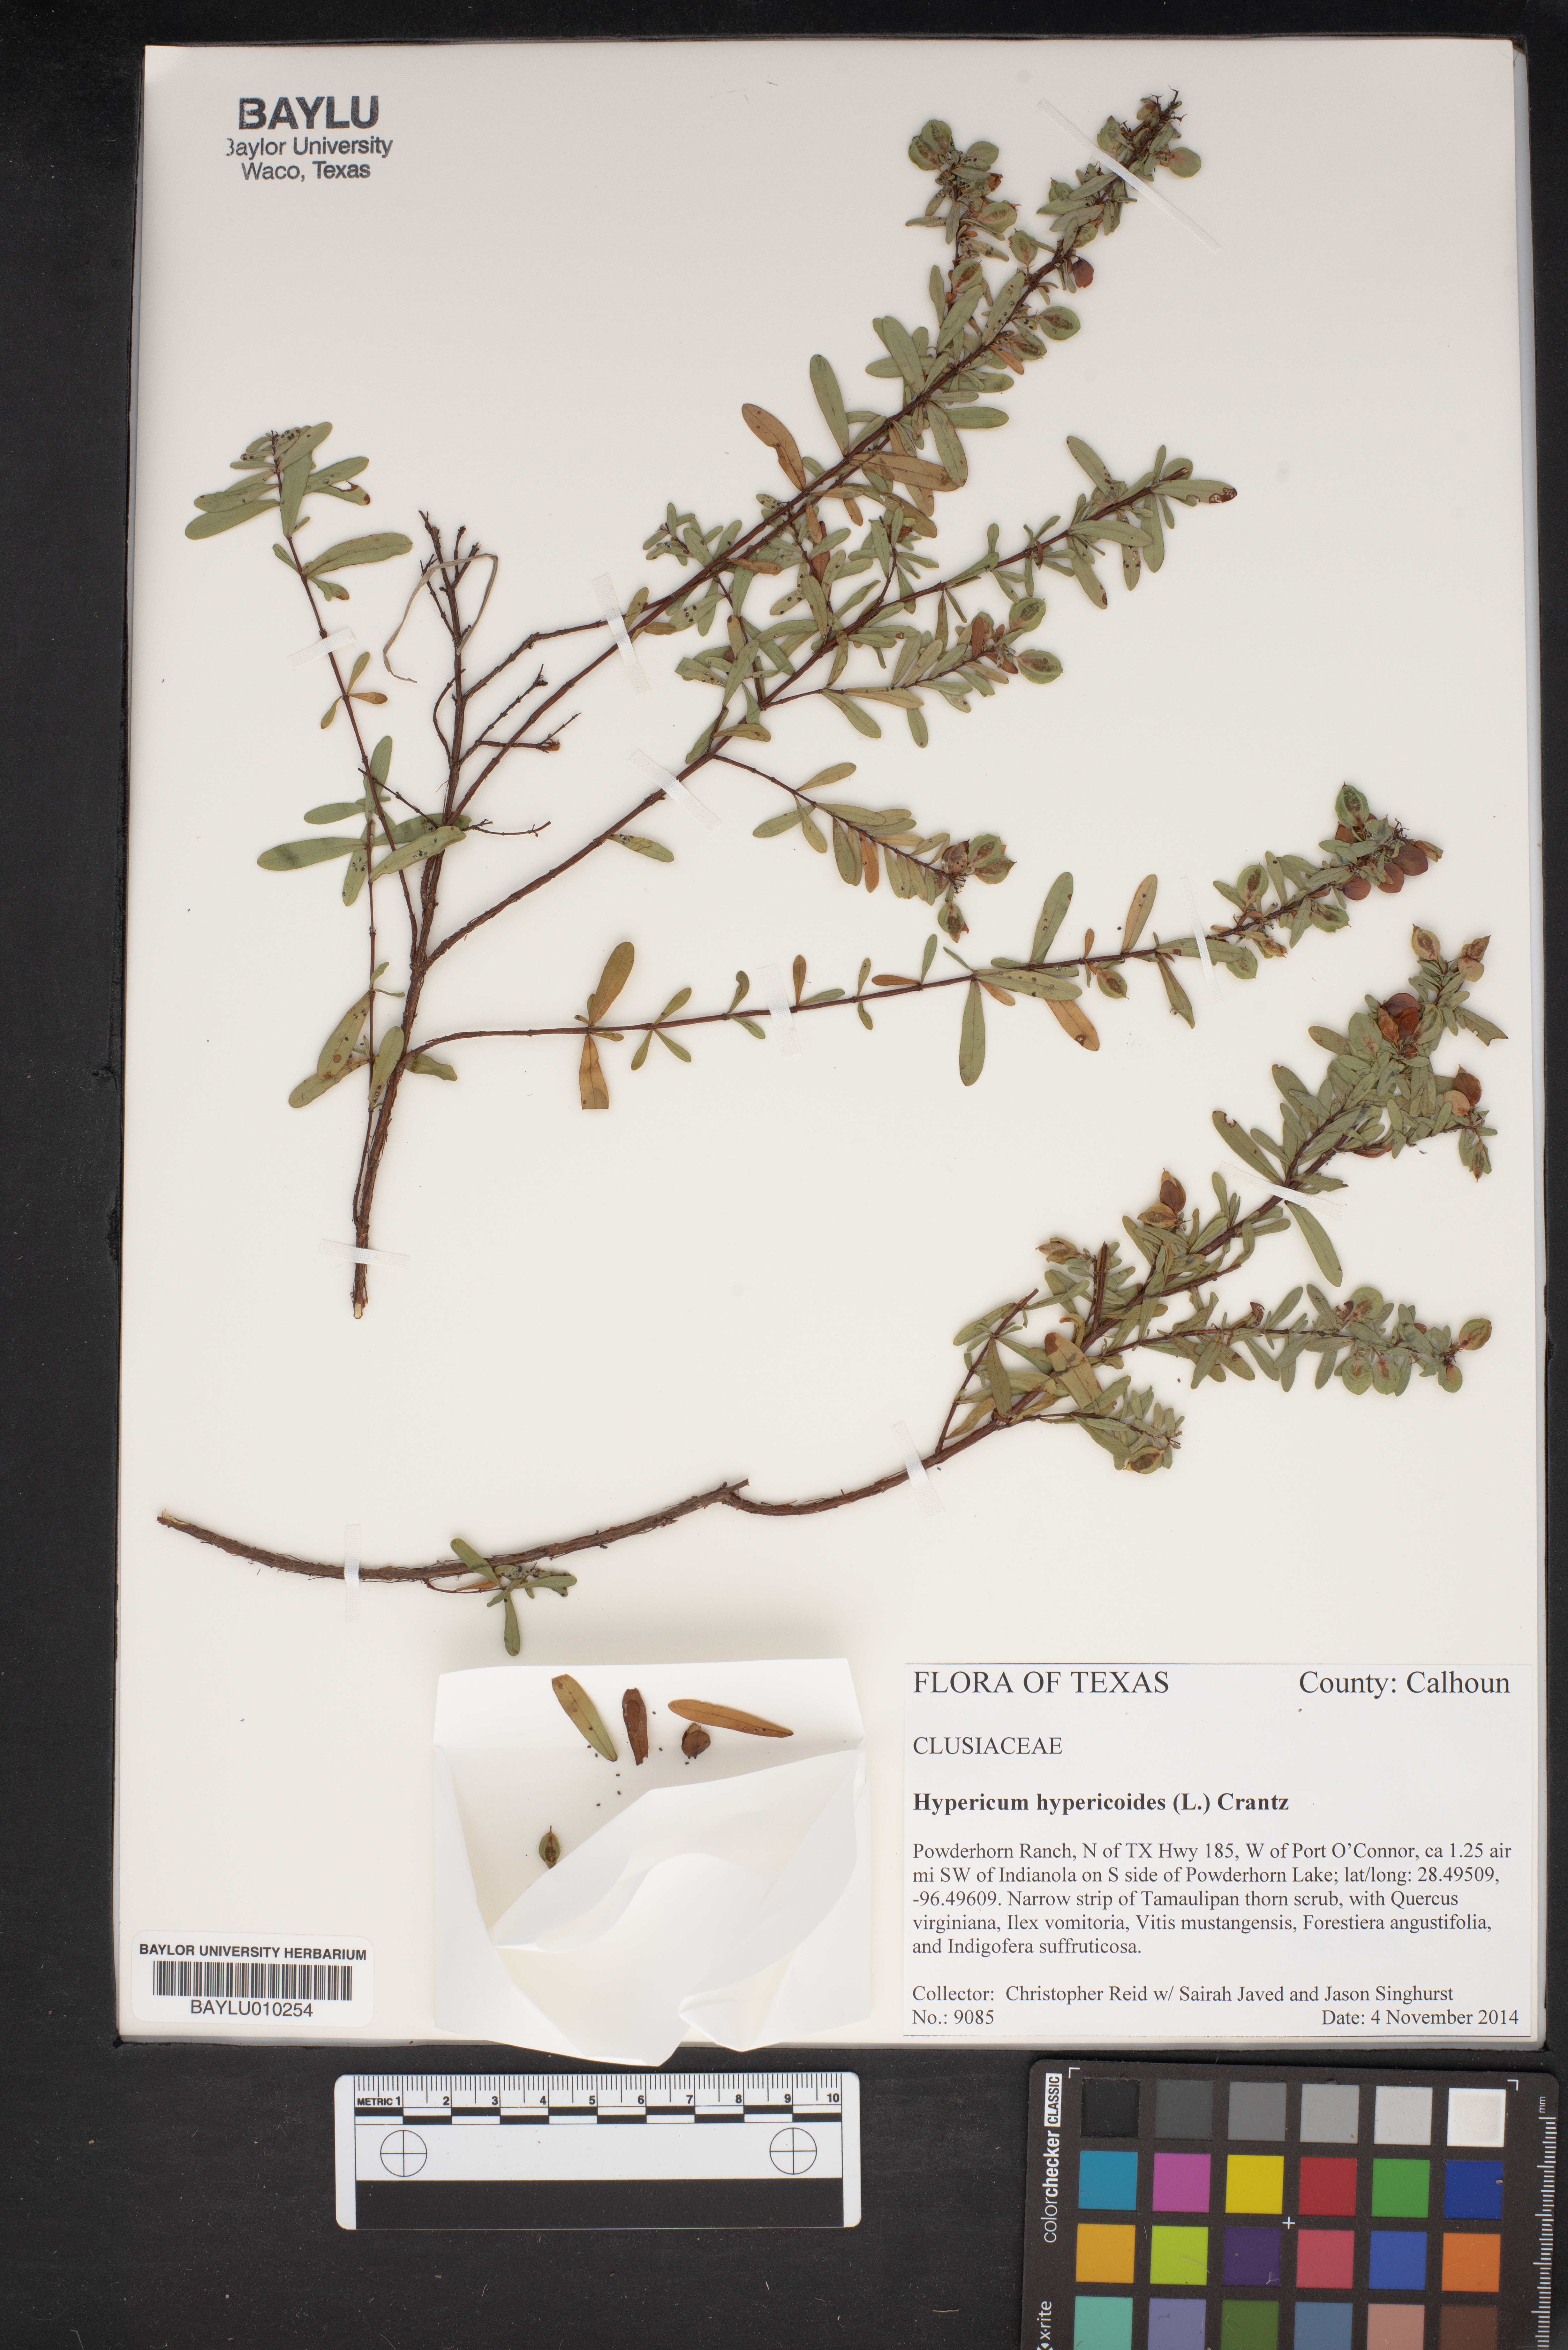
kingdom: Plantae
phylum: Tracheophyta
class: Magnoliopsida
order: Malpighiales
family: Hypericaceae
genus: Hypericum
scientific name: Hypericum hypericoides
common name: St. andrew's cross
